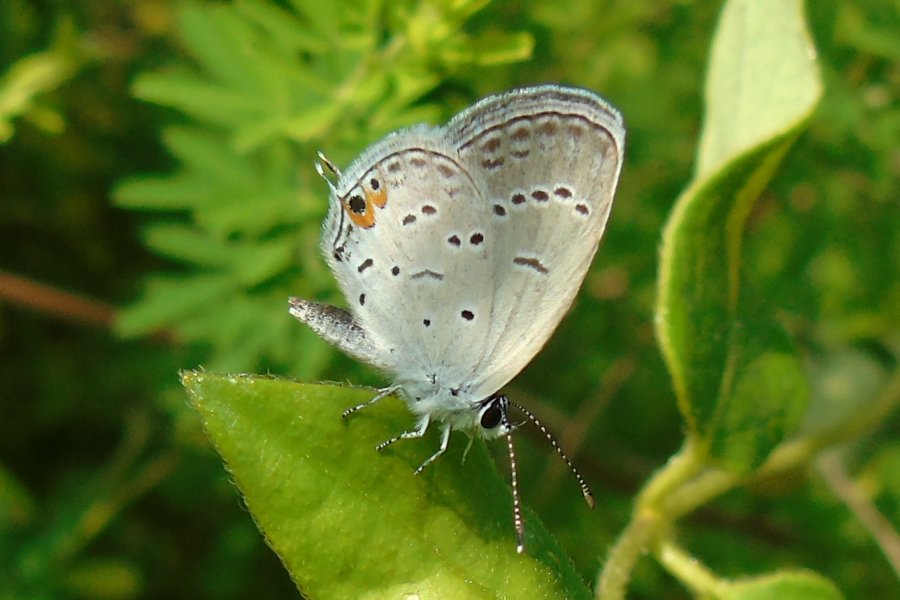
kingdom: Animalia
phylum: Arthropoda
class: Insecta
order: Lepidoptera
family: Lycaenidae
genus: Elkalyce
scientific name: Elkalyce comyntas
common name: Eastern Tailed-Blue
